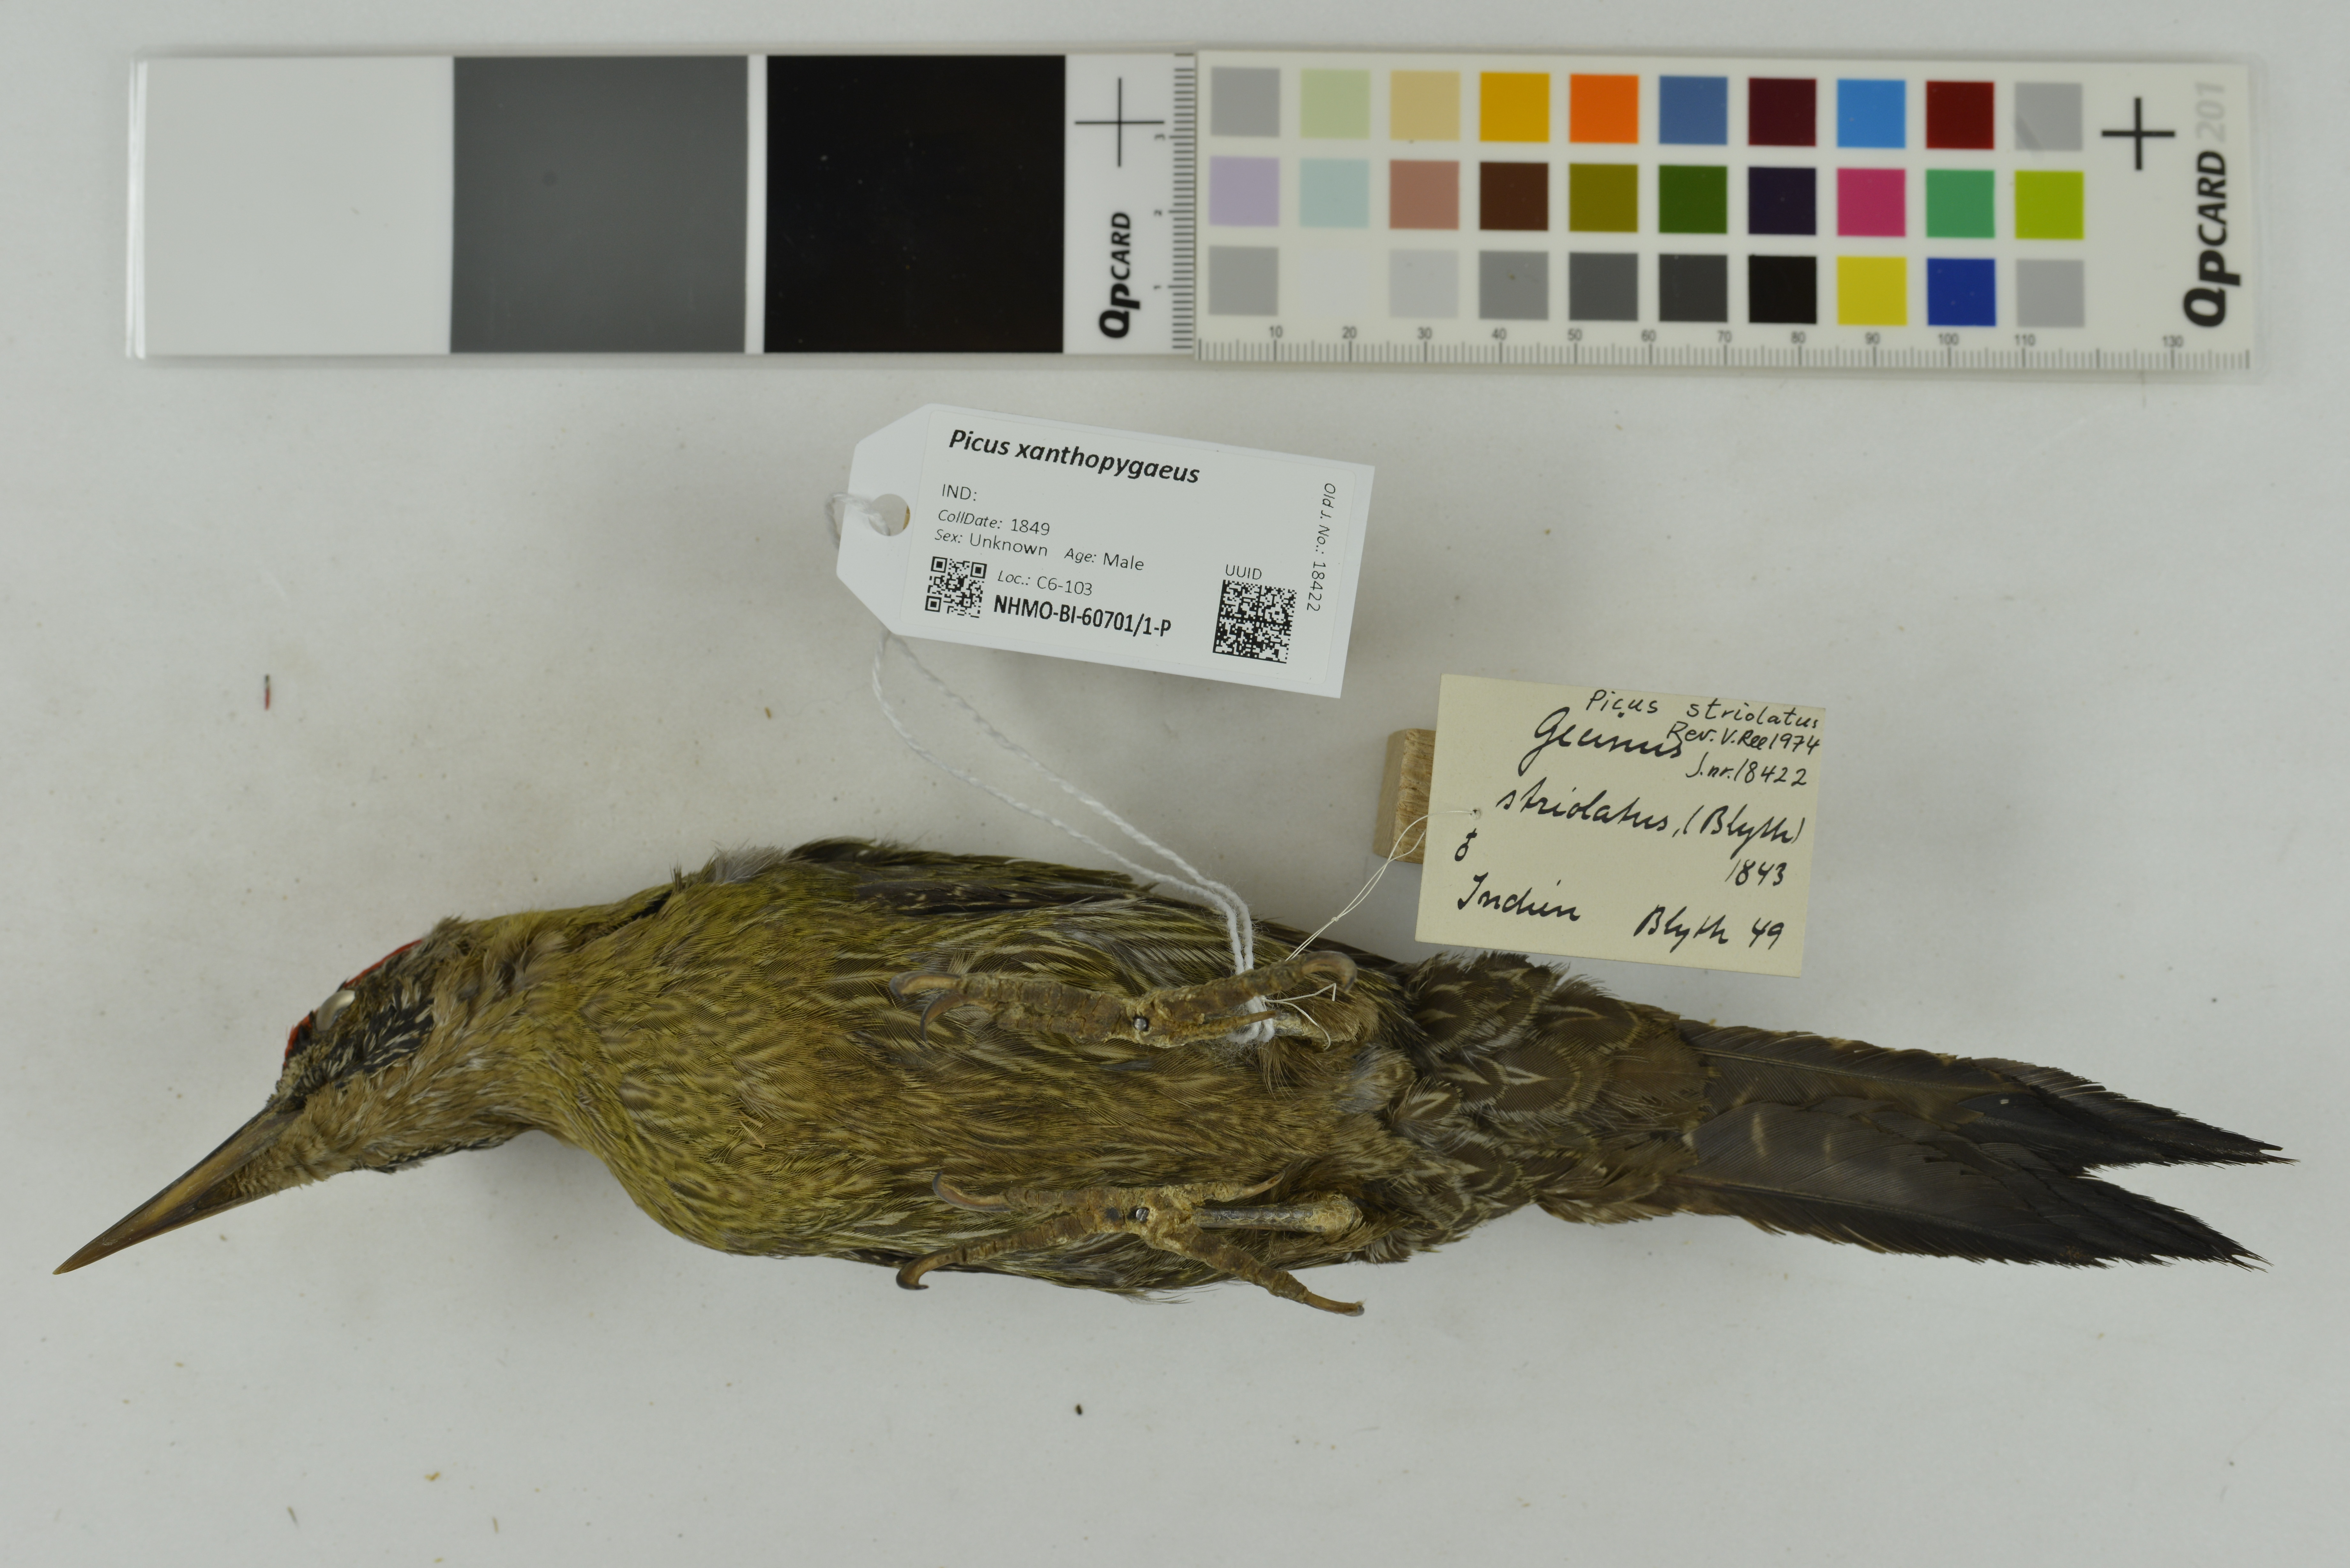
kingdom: Animalia
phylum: Chordata
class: Aves
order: Piciformes
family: Picidae
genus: Picus
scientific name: Picus xanthopygaeus
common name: Streak-throated woodpecker
